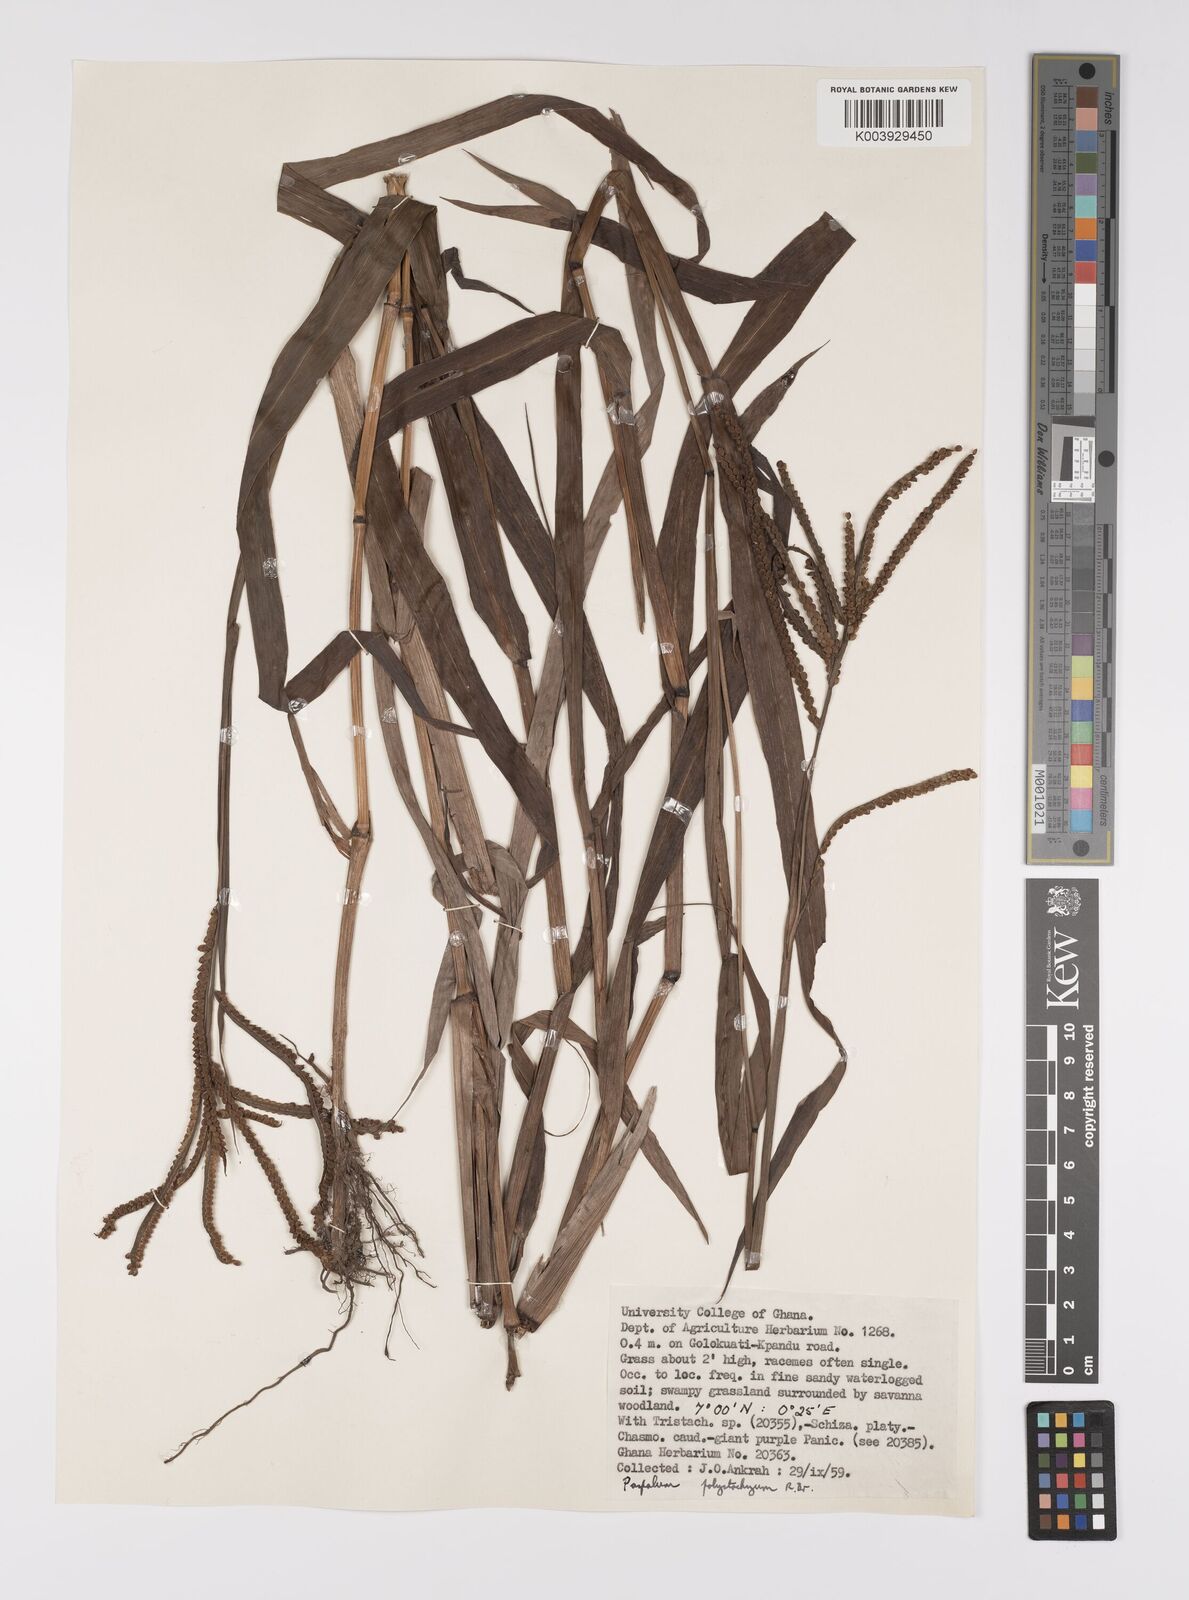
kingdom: Plantae
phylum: Tracheophyta
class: Liliopsida
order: Poales
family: Poaceae
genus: Paspalum
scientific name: Paspalum scrobiculatum
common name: Kodo millet
